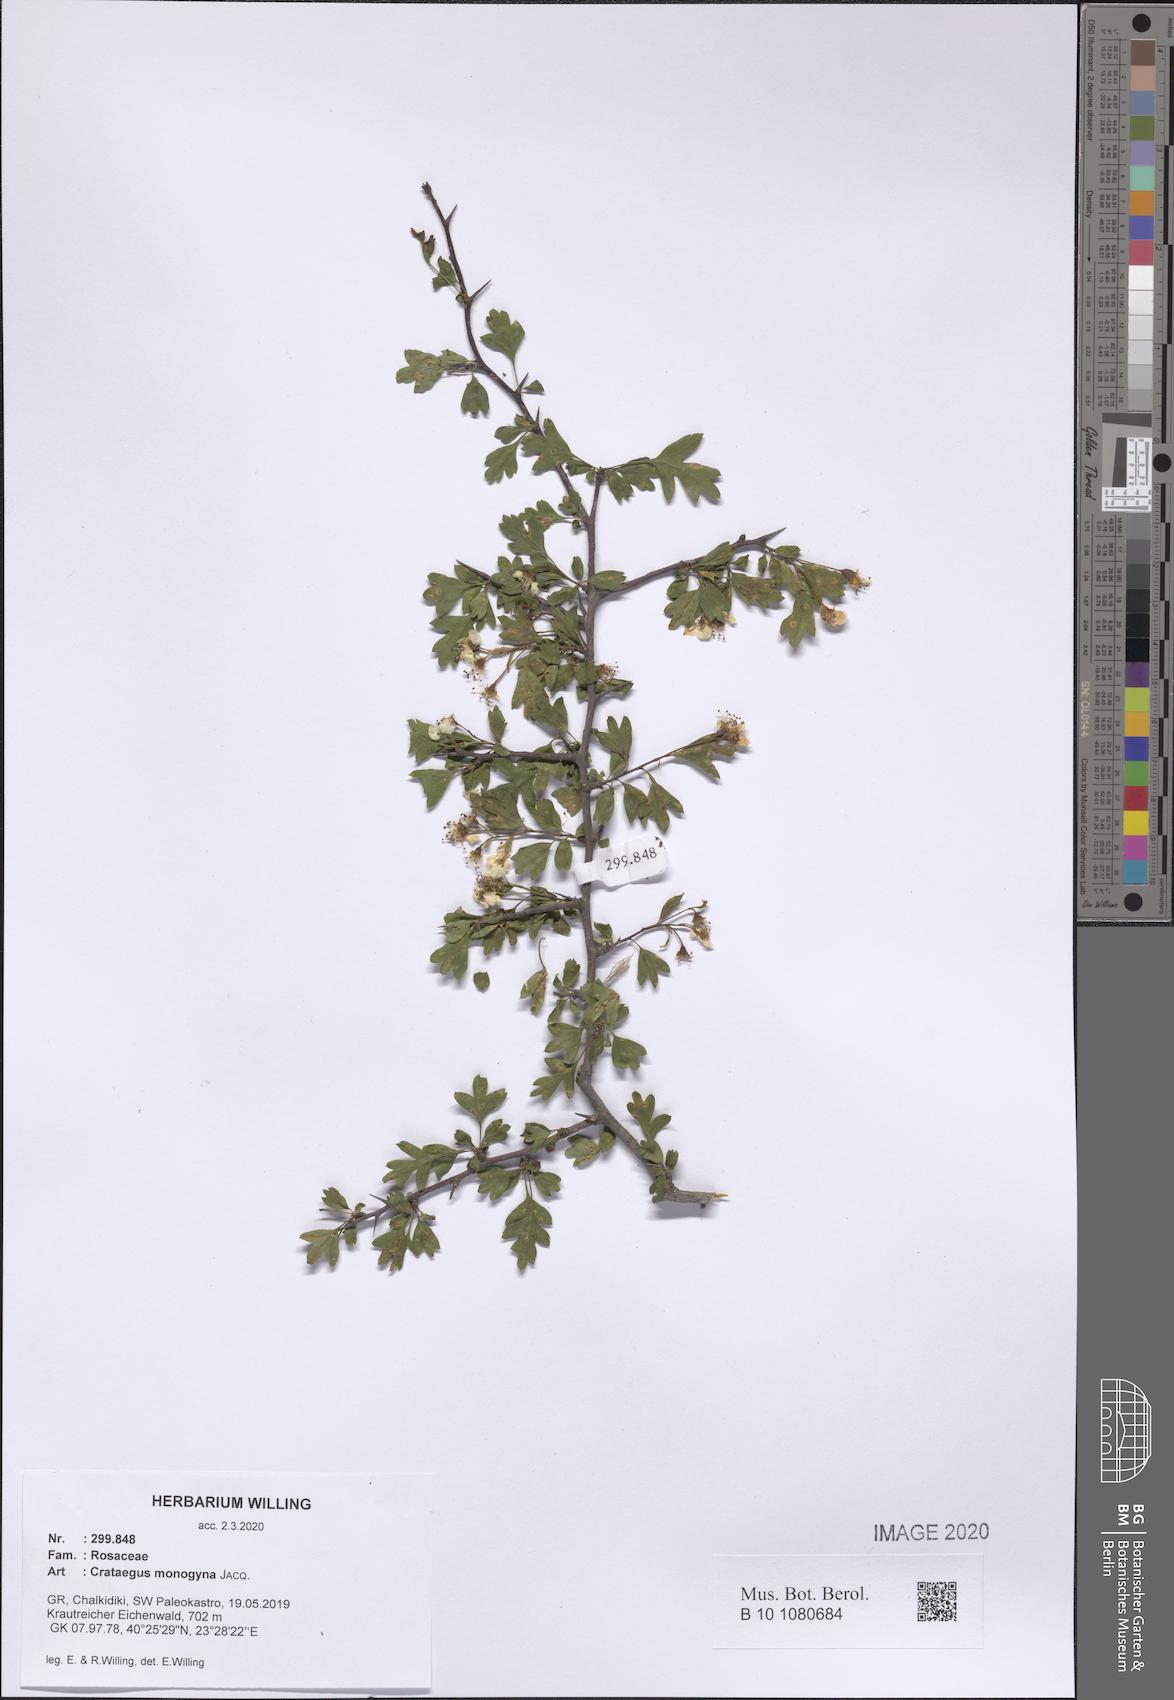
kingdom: Plantae
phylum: Tracheophyta
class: Magnoliopsida
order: Rosales
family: Rosaceae
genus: Crataegus
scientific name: Crataegus monogyna
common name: Hawthorn
